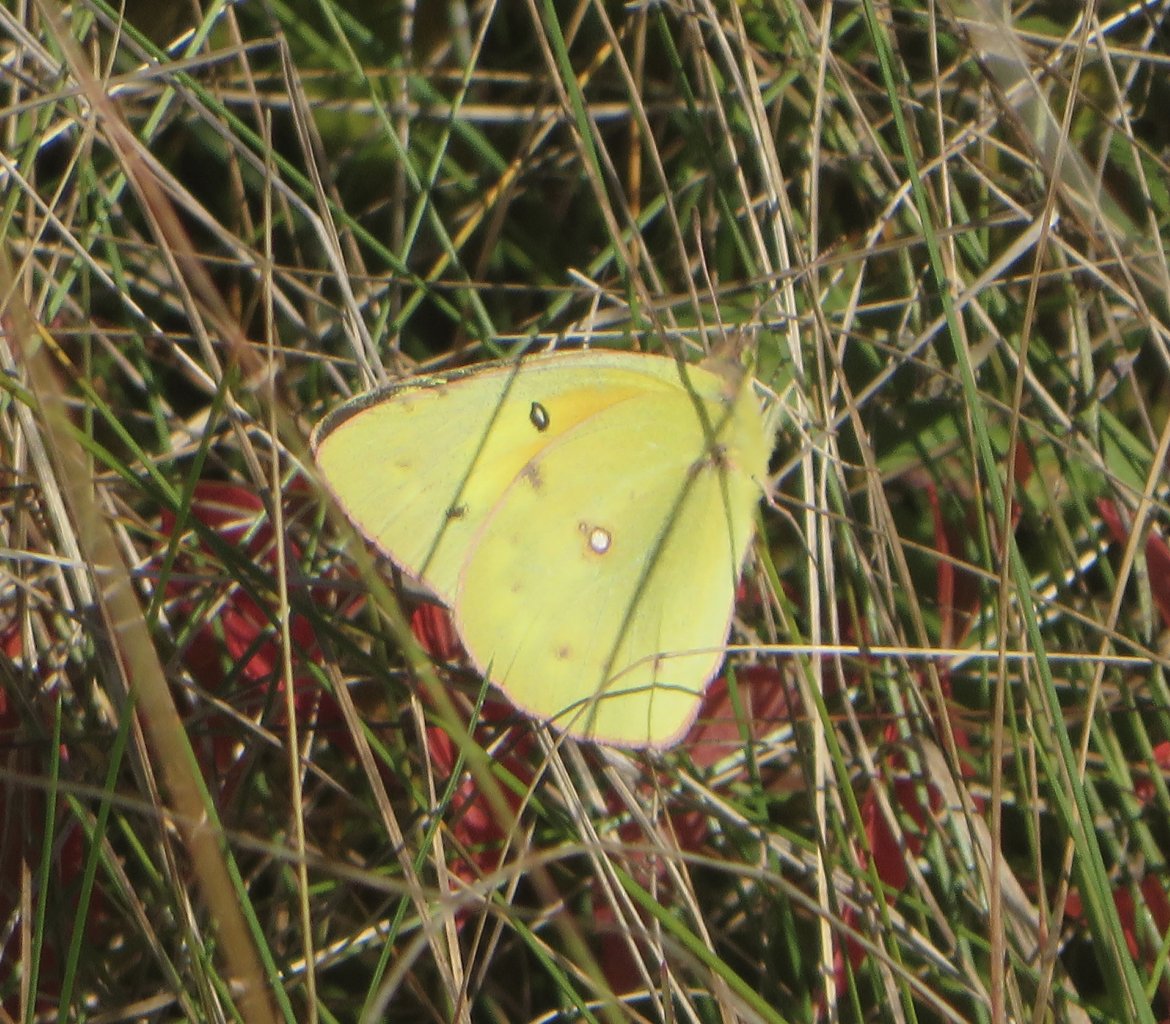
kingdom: Animalia
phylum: Arthropoda
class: Insecta
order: Lepidoptera
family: Pieridae
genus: Colias
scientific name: Colias eurytheme
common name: Orange Sulphur
